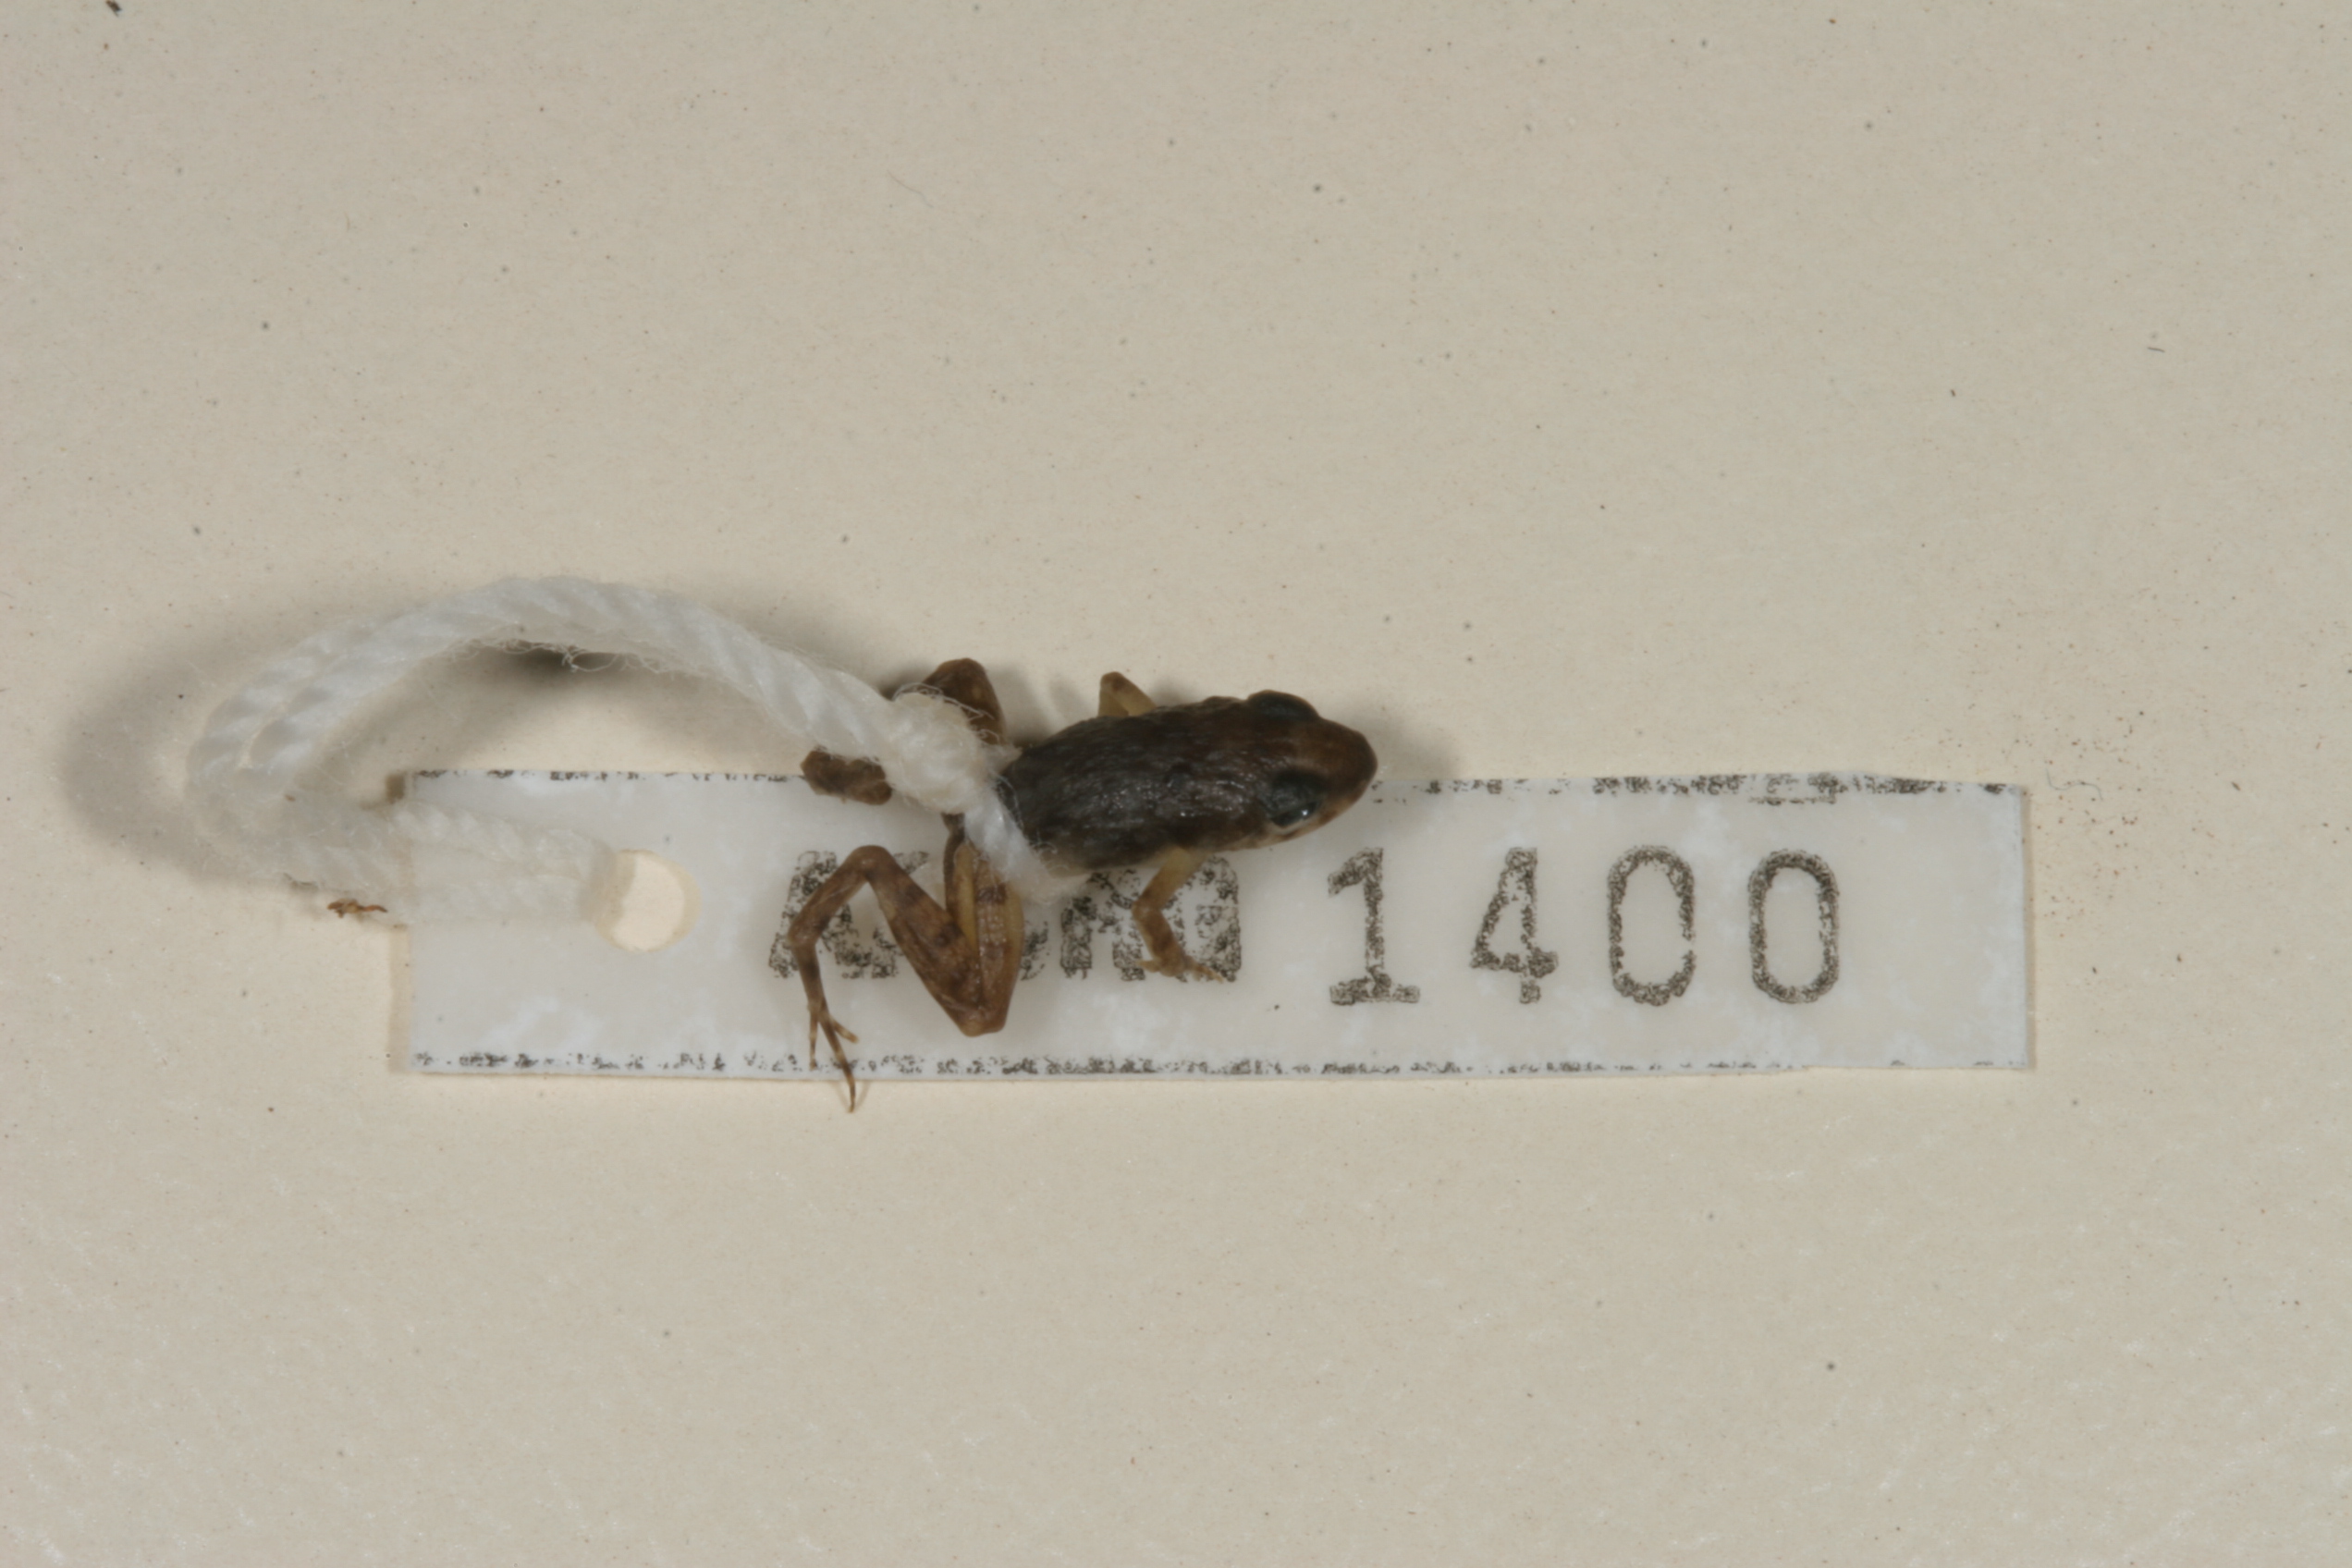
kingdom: Animalia
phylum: Chordata
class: Amphibia
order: Anura
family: Phrynobatrachidae
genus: Phrynobatrachus
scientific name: Phrynobatrachus mababiensis
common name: Dwarf puddle frog
